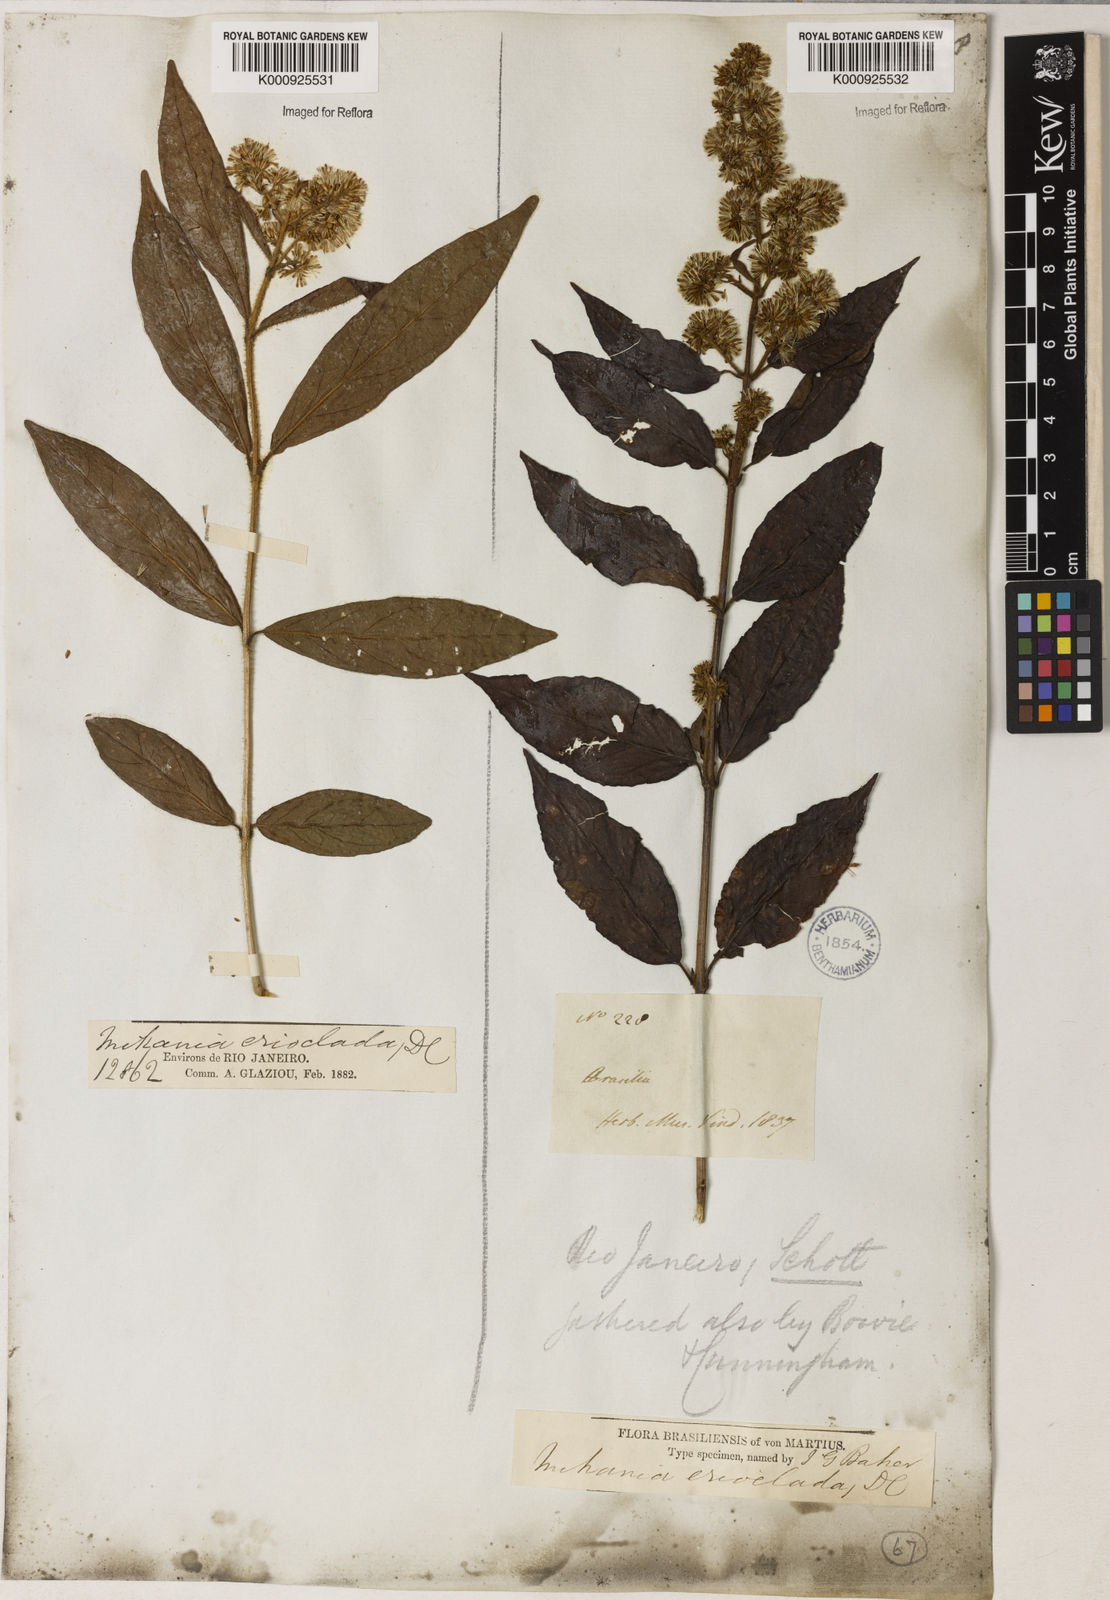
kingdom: Plantae
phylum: Tracheophyta
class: Magnoliopsida
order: Asterales
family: Asteraceae
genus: Mikania
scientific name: Mikania erioclada
